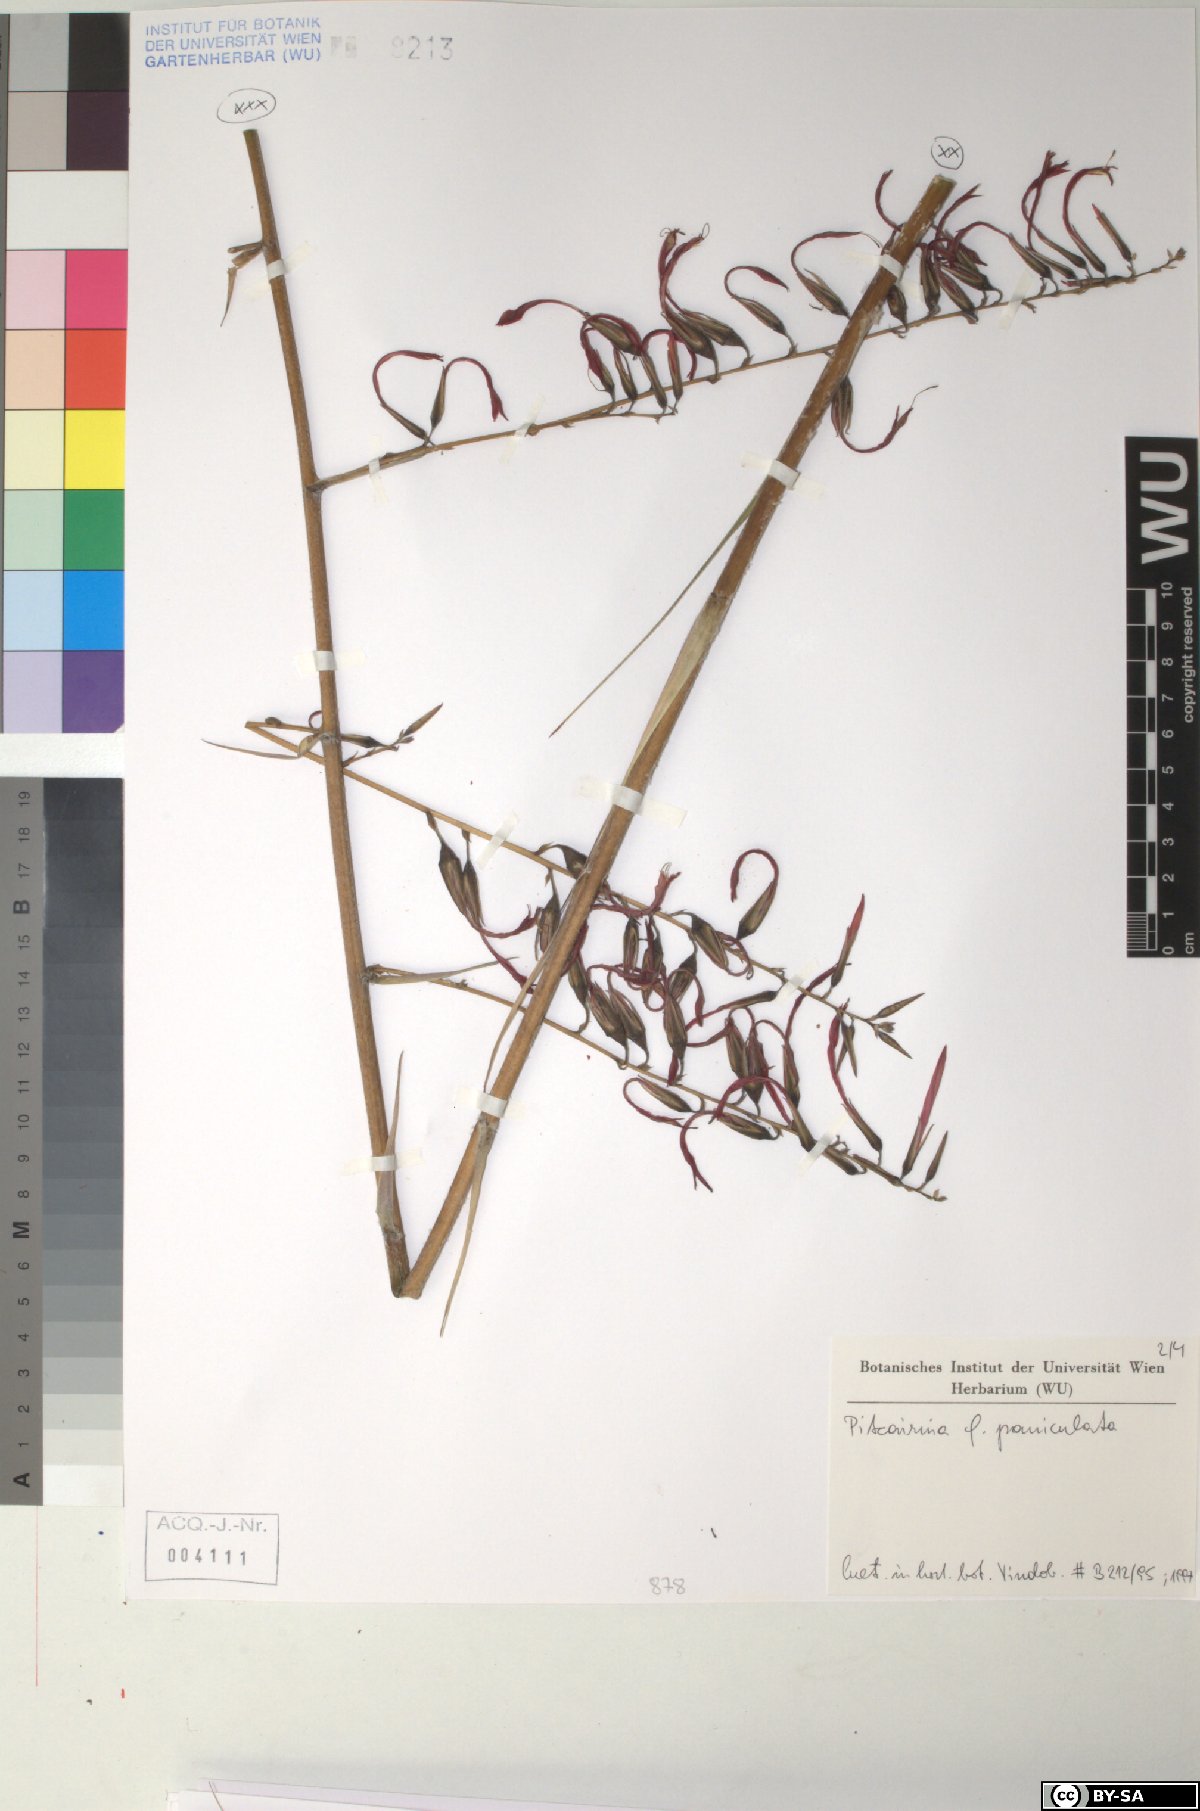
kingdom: Plantae
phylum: Tracheophyta
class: Liliopsida
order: Poales
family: Bromeliaceae
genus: Pitcairnia
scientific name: Pitcairnia paniculata
